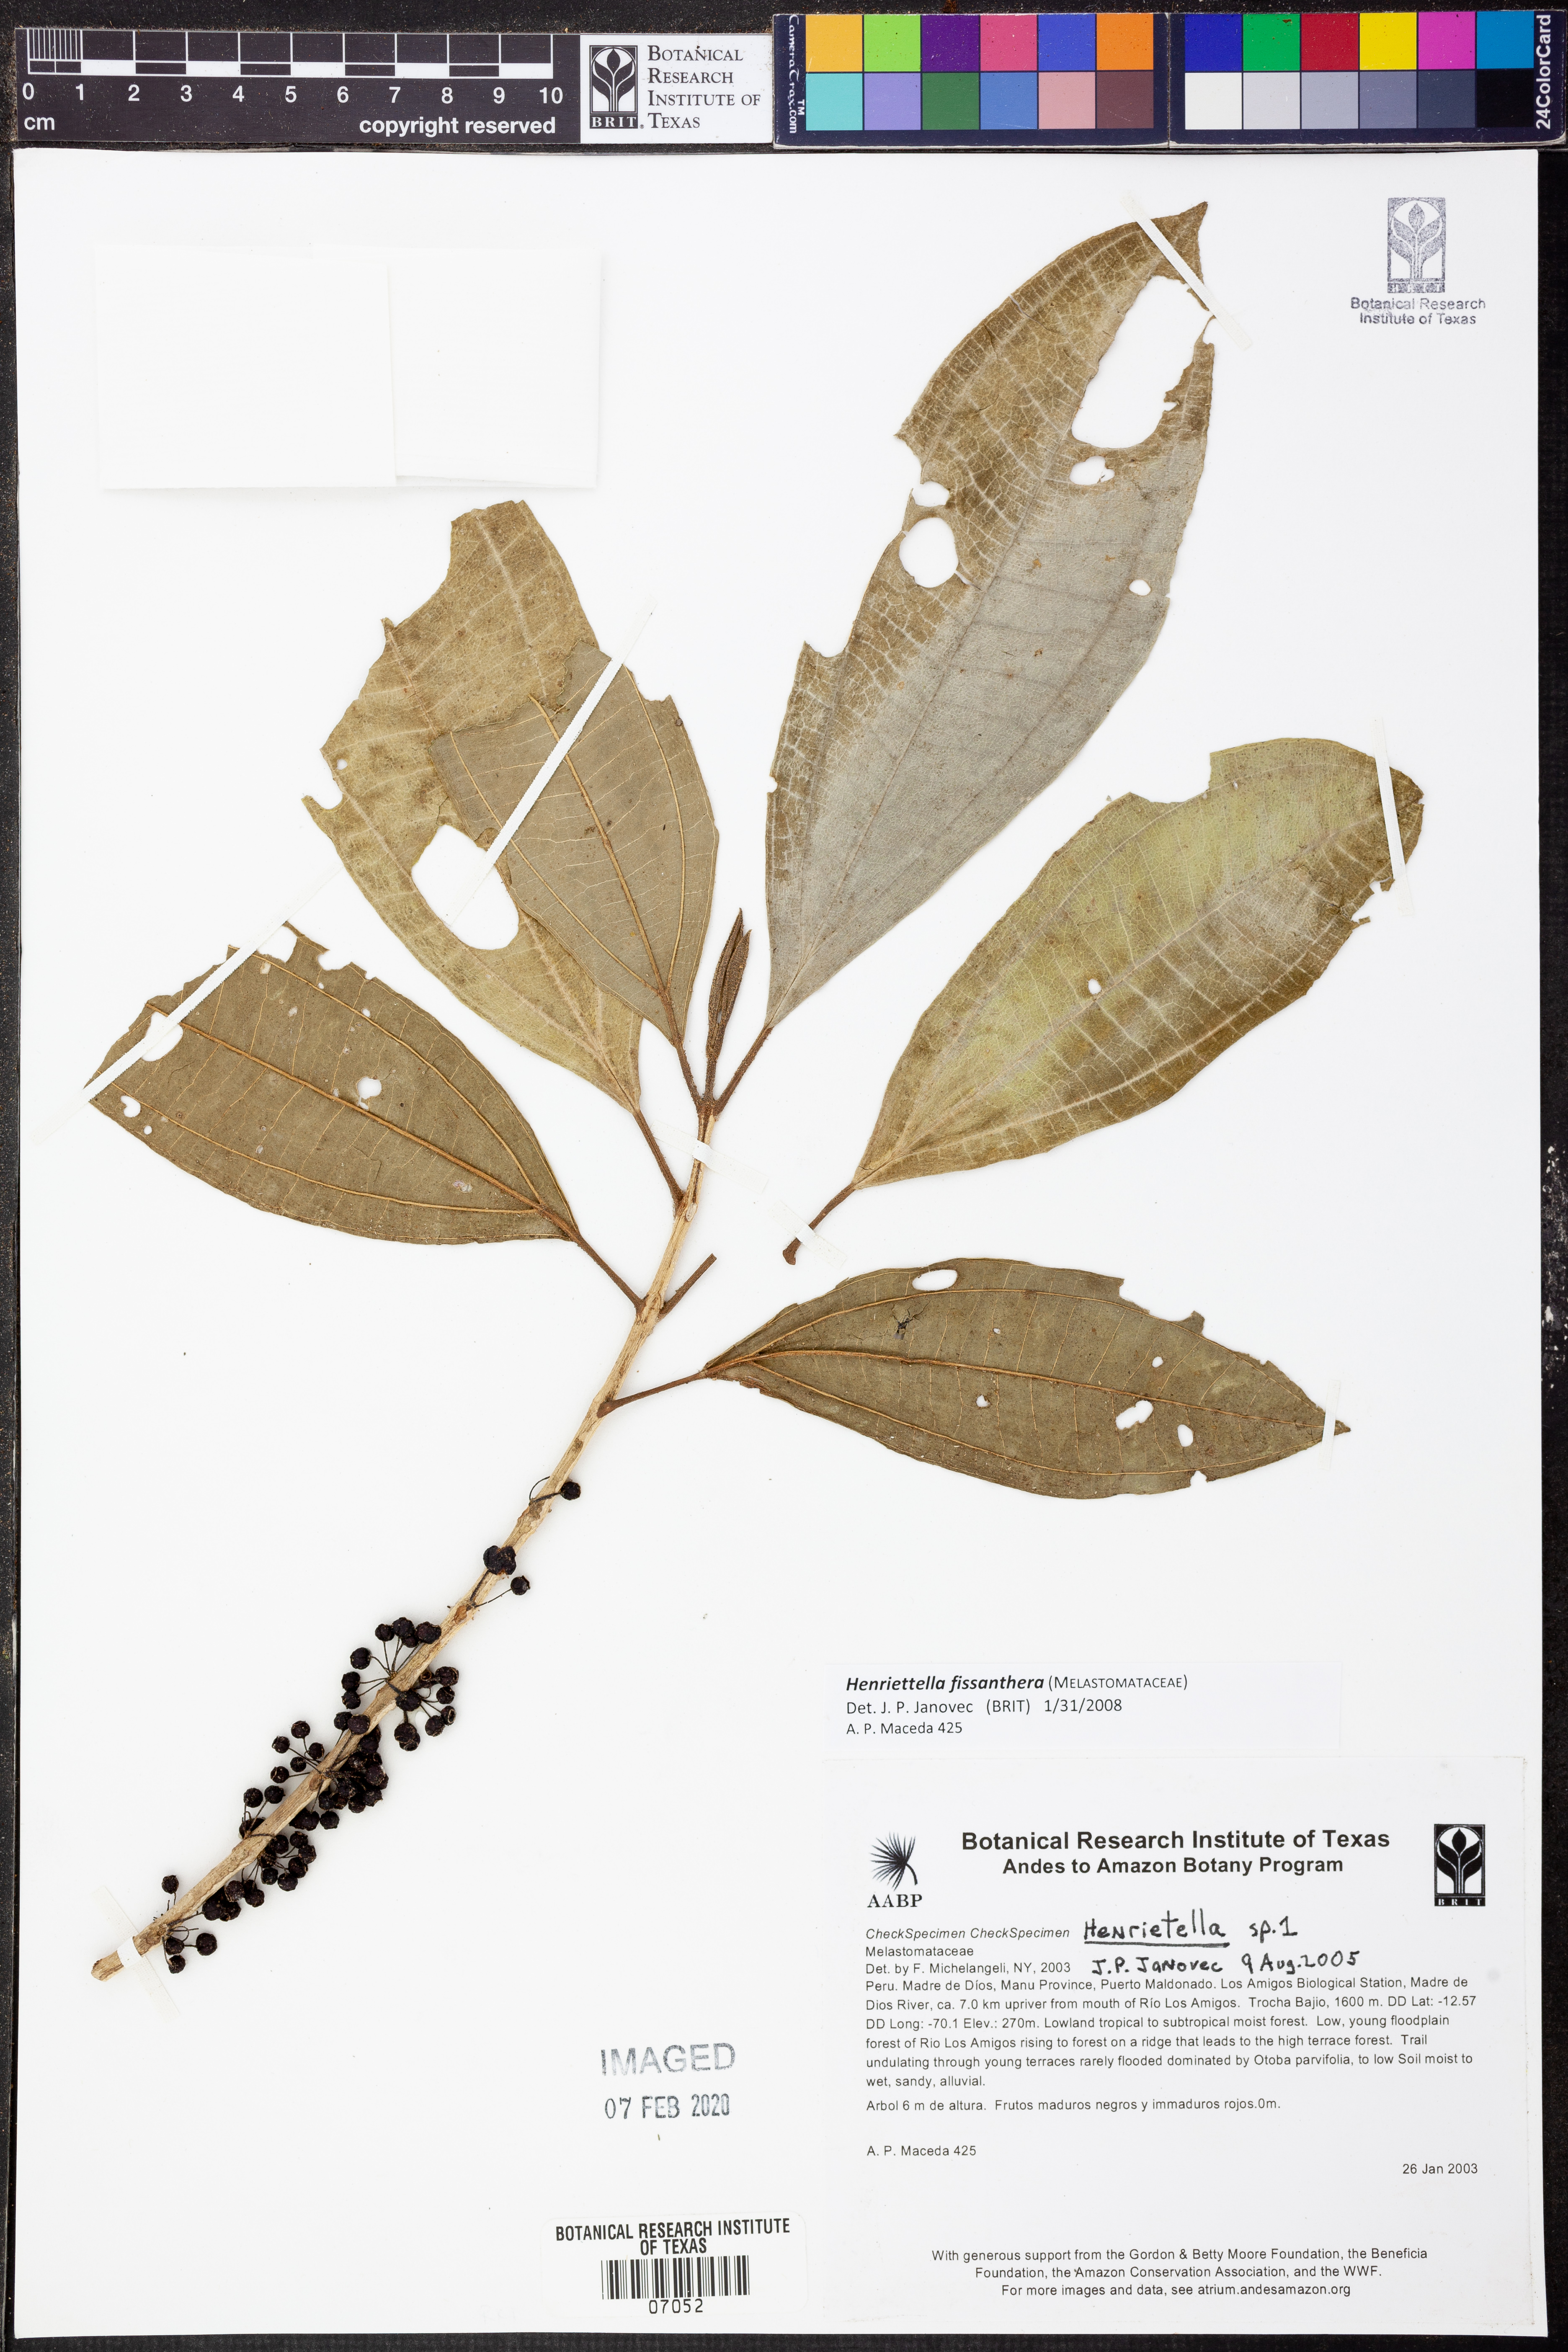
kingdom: Plantae
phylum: Tracheophyta
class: Magnoliopsida
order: Myrtales
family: Melastomataceae
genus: Henriettea
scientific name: Henriettea fissanthera
